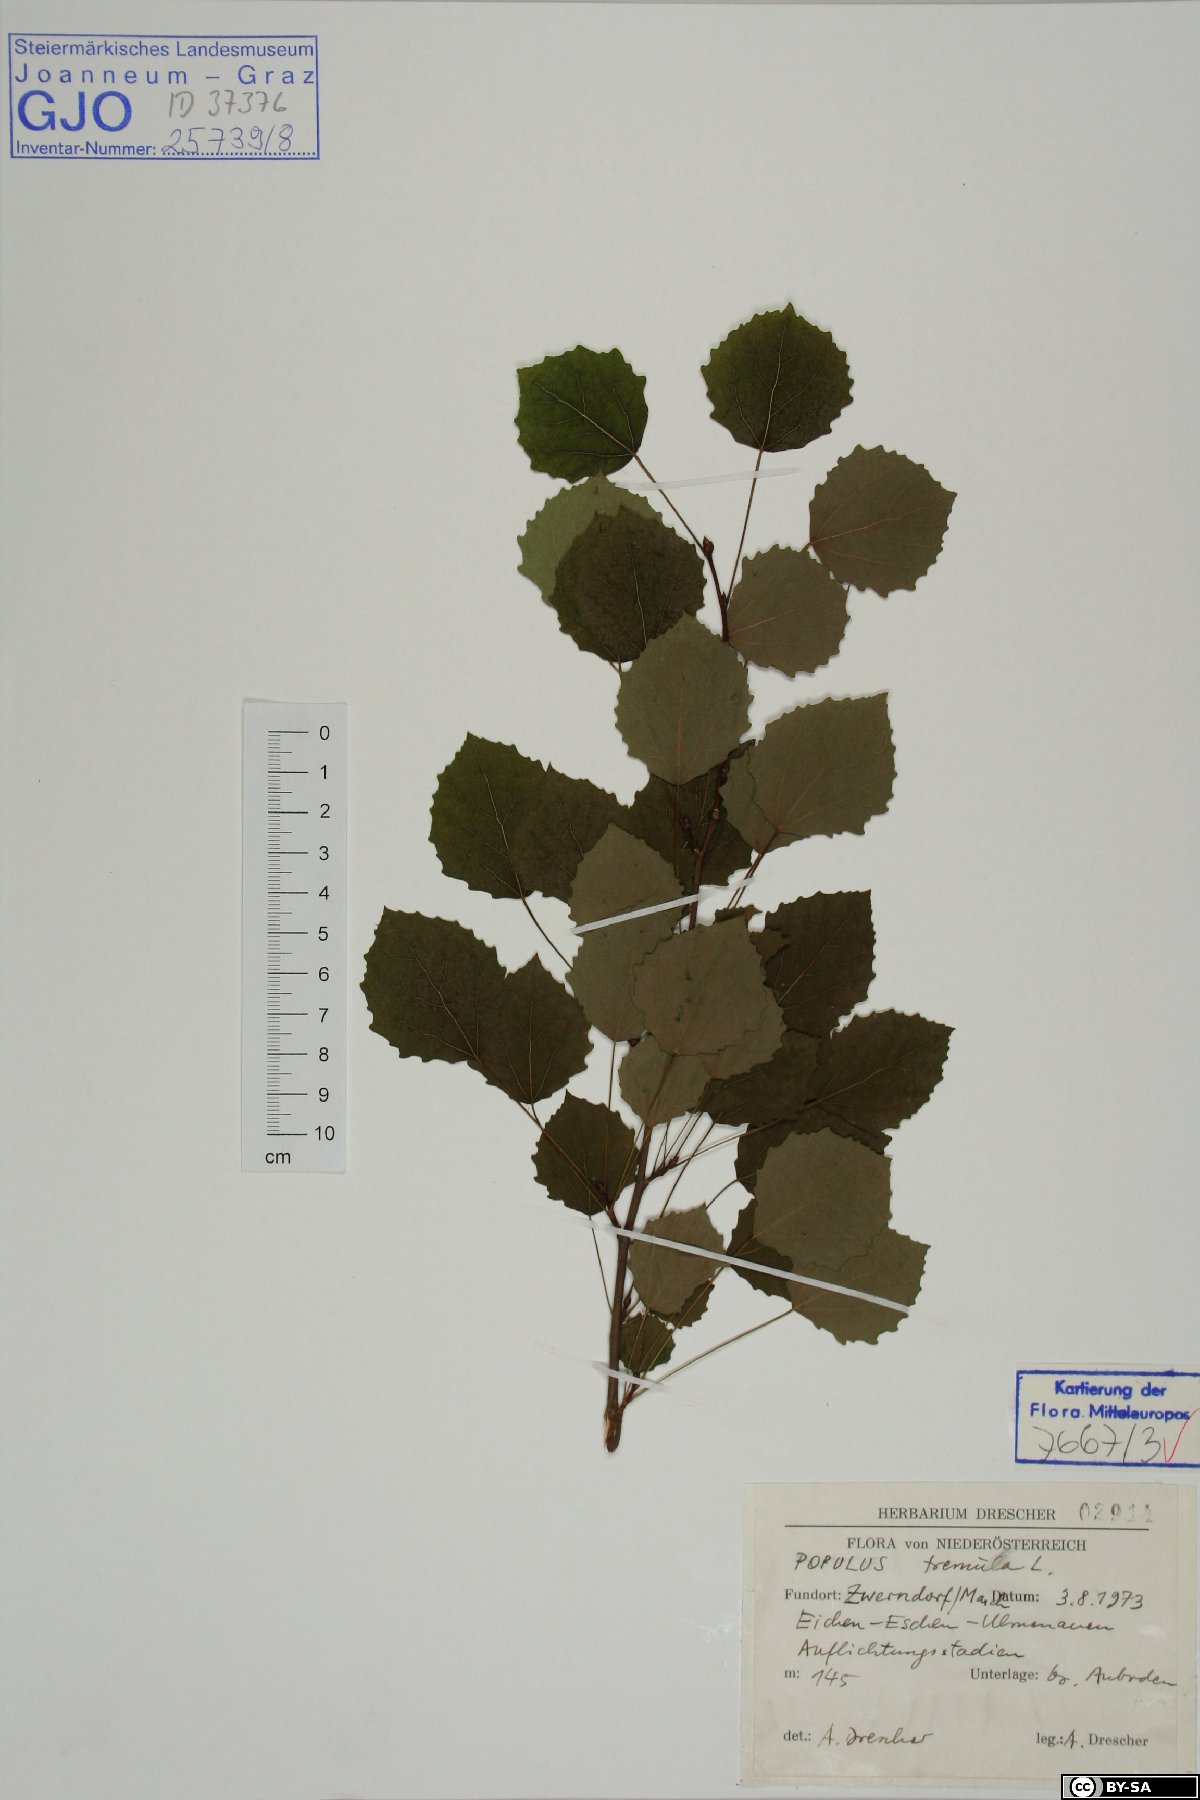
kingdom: Plantae
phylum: Tracheophyta
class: Magnoliopsida
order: Malpighiales
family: Salicaceae
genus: Populus
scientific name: Populus tremula
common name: European aspen
